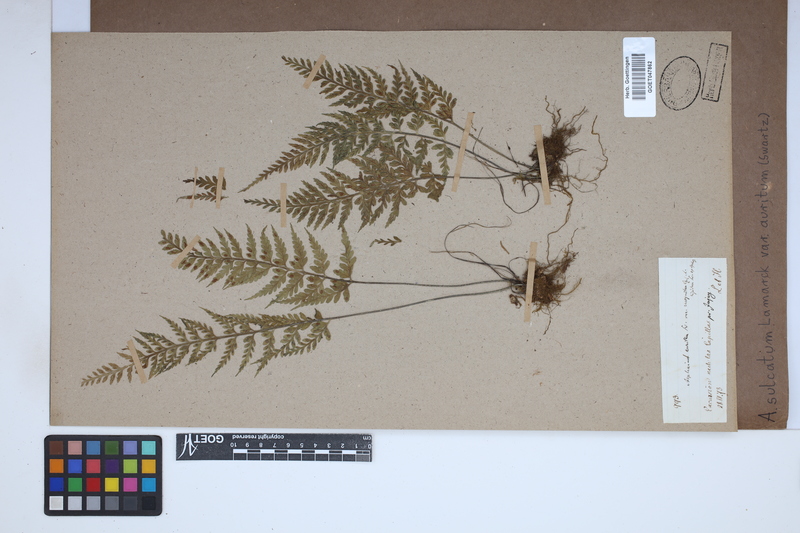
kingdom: Plantae
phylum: Tracheophyta
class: Polypodiopsida
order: Polypodiales
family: Aspleniaceae
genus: Asplenium
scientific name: Asplenium auritum
